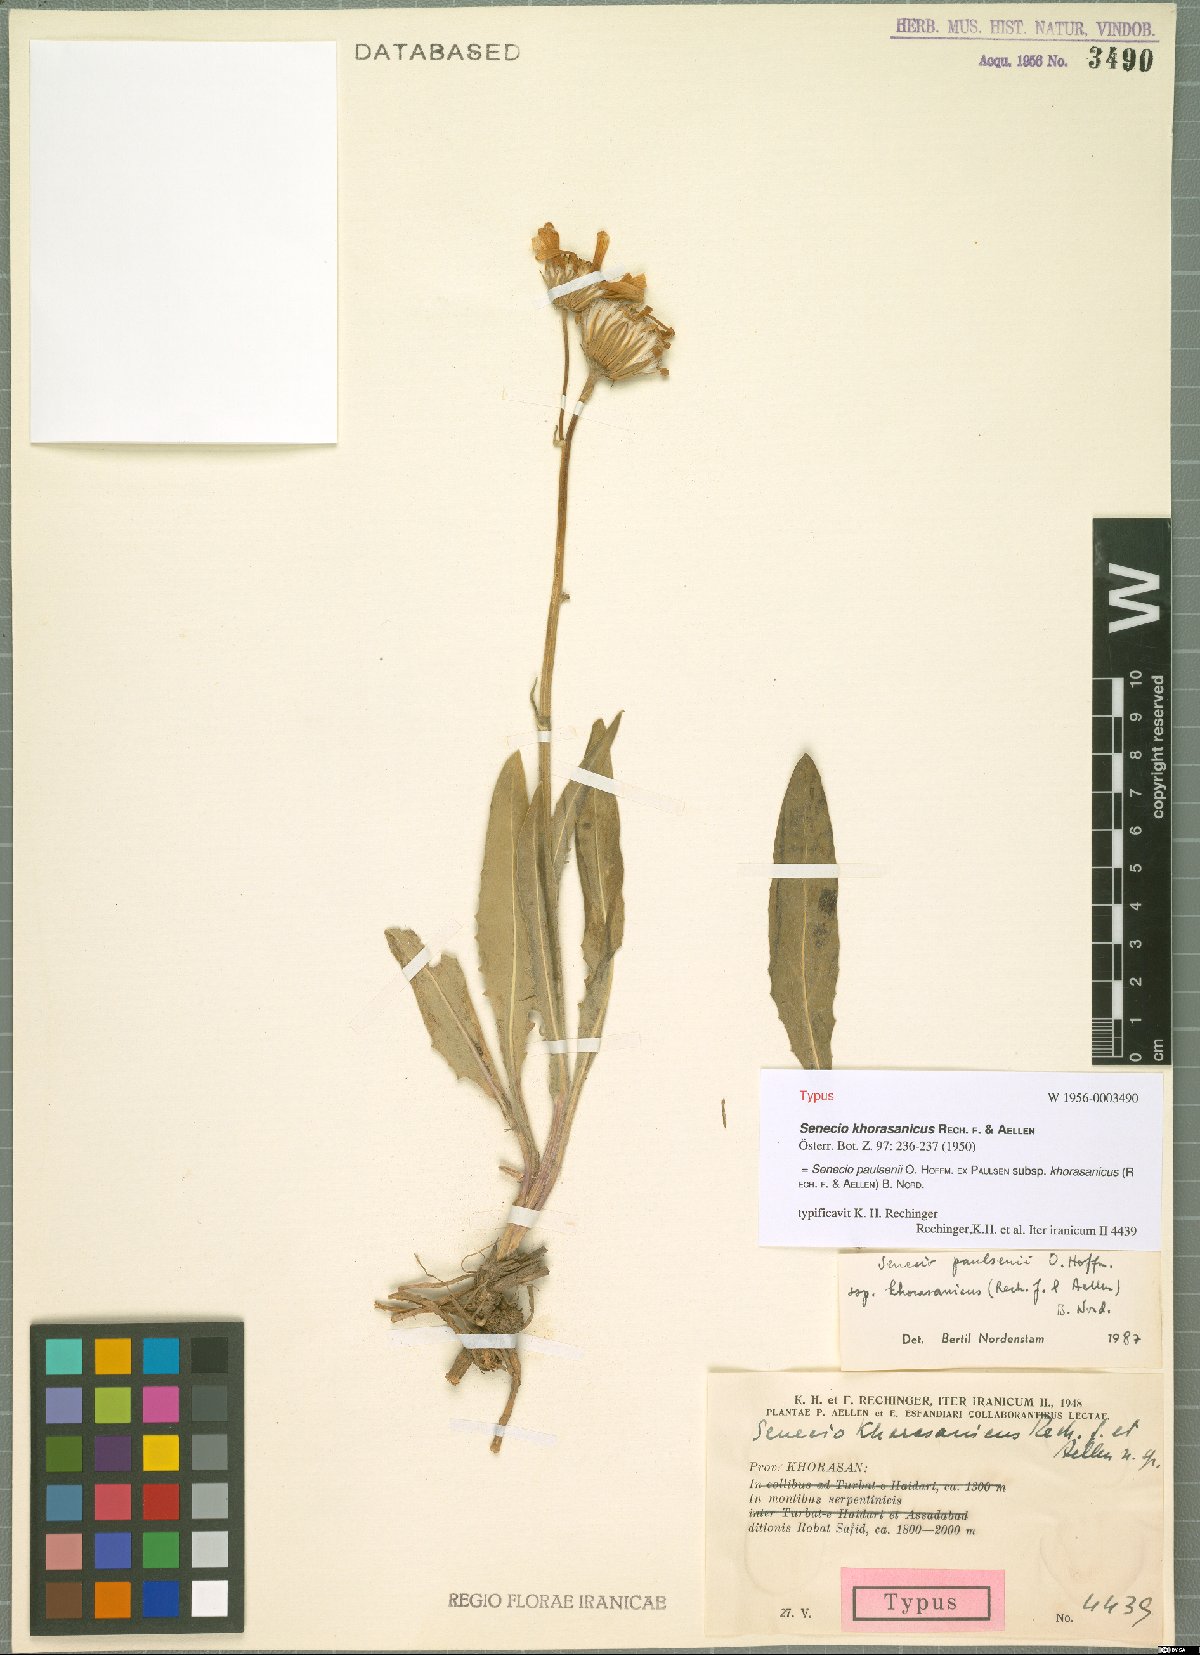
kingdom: Plantae
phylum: Tracheophyta
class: Magnoliopsida
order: Asterales
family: Asteraceae
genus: Senecio
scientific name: Senecio paulsenii
